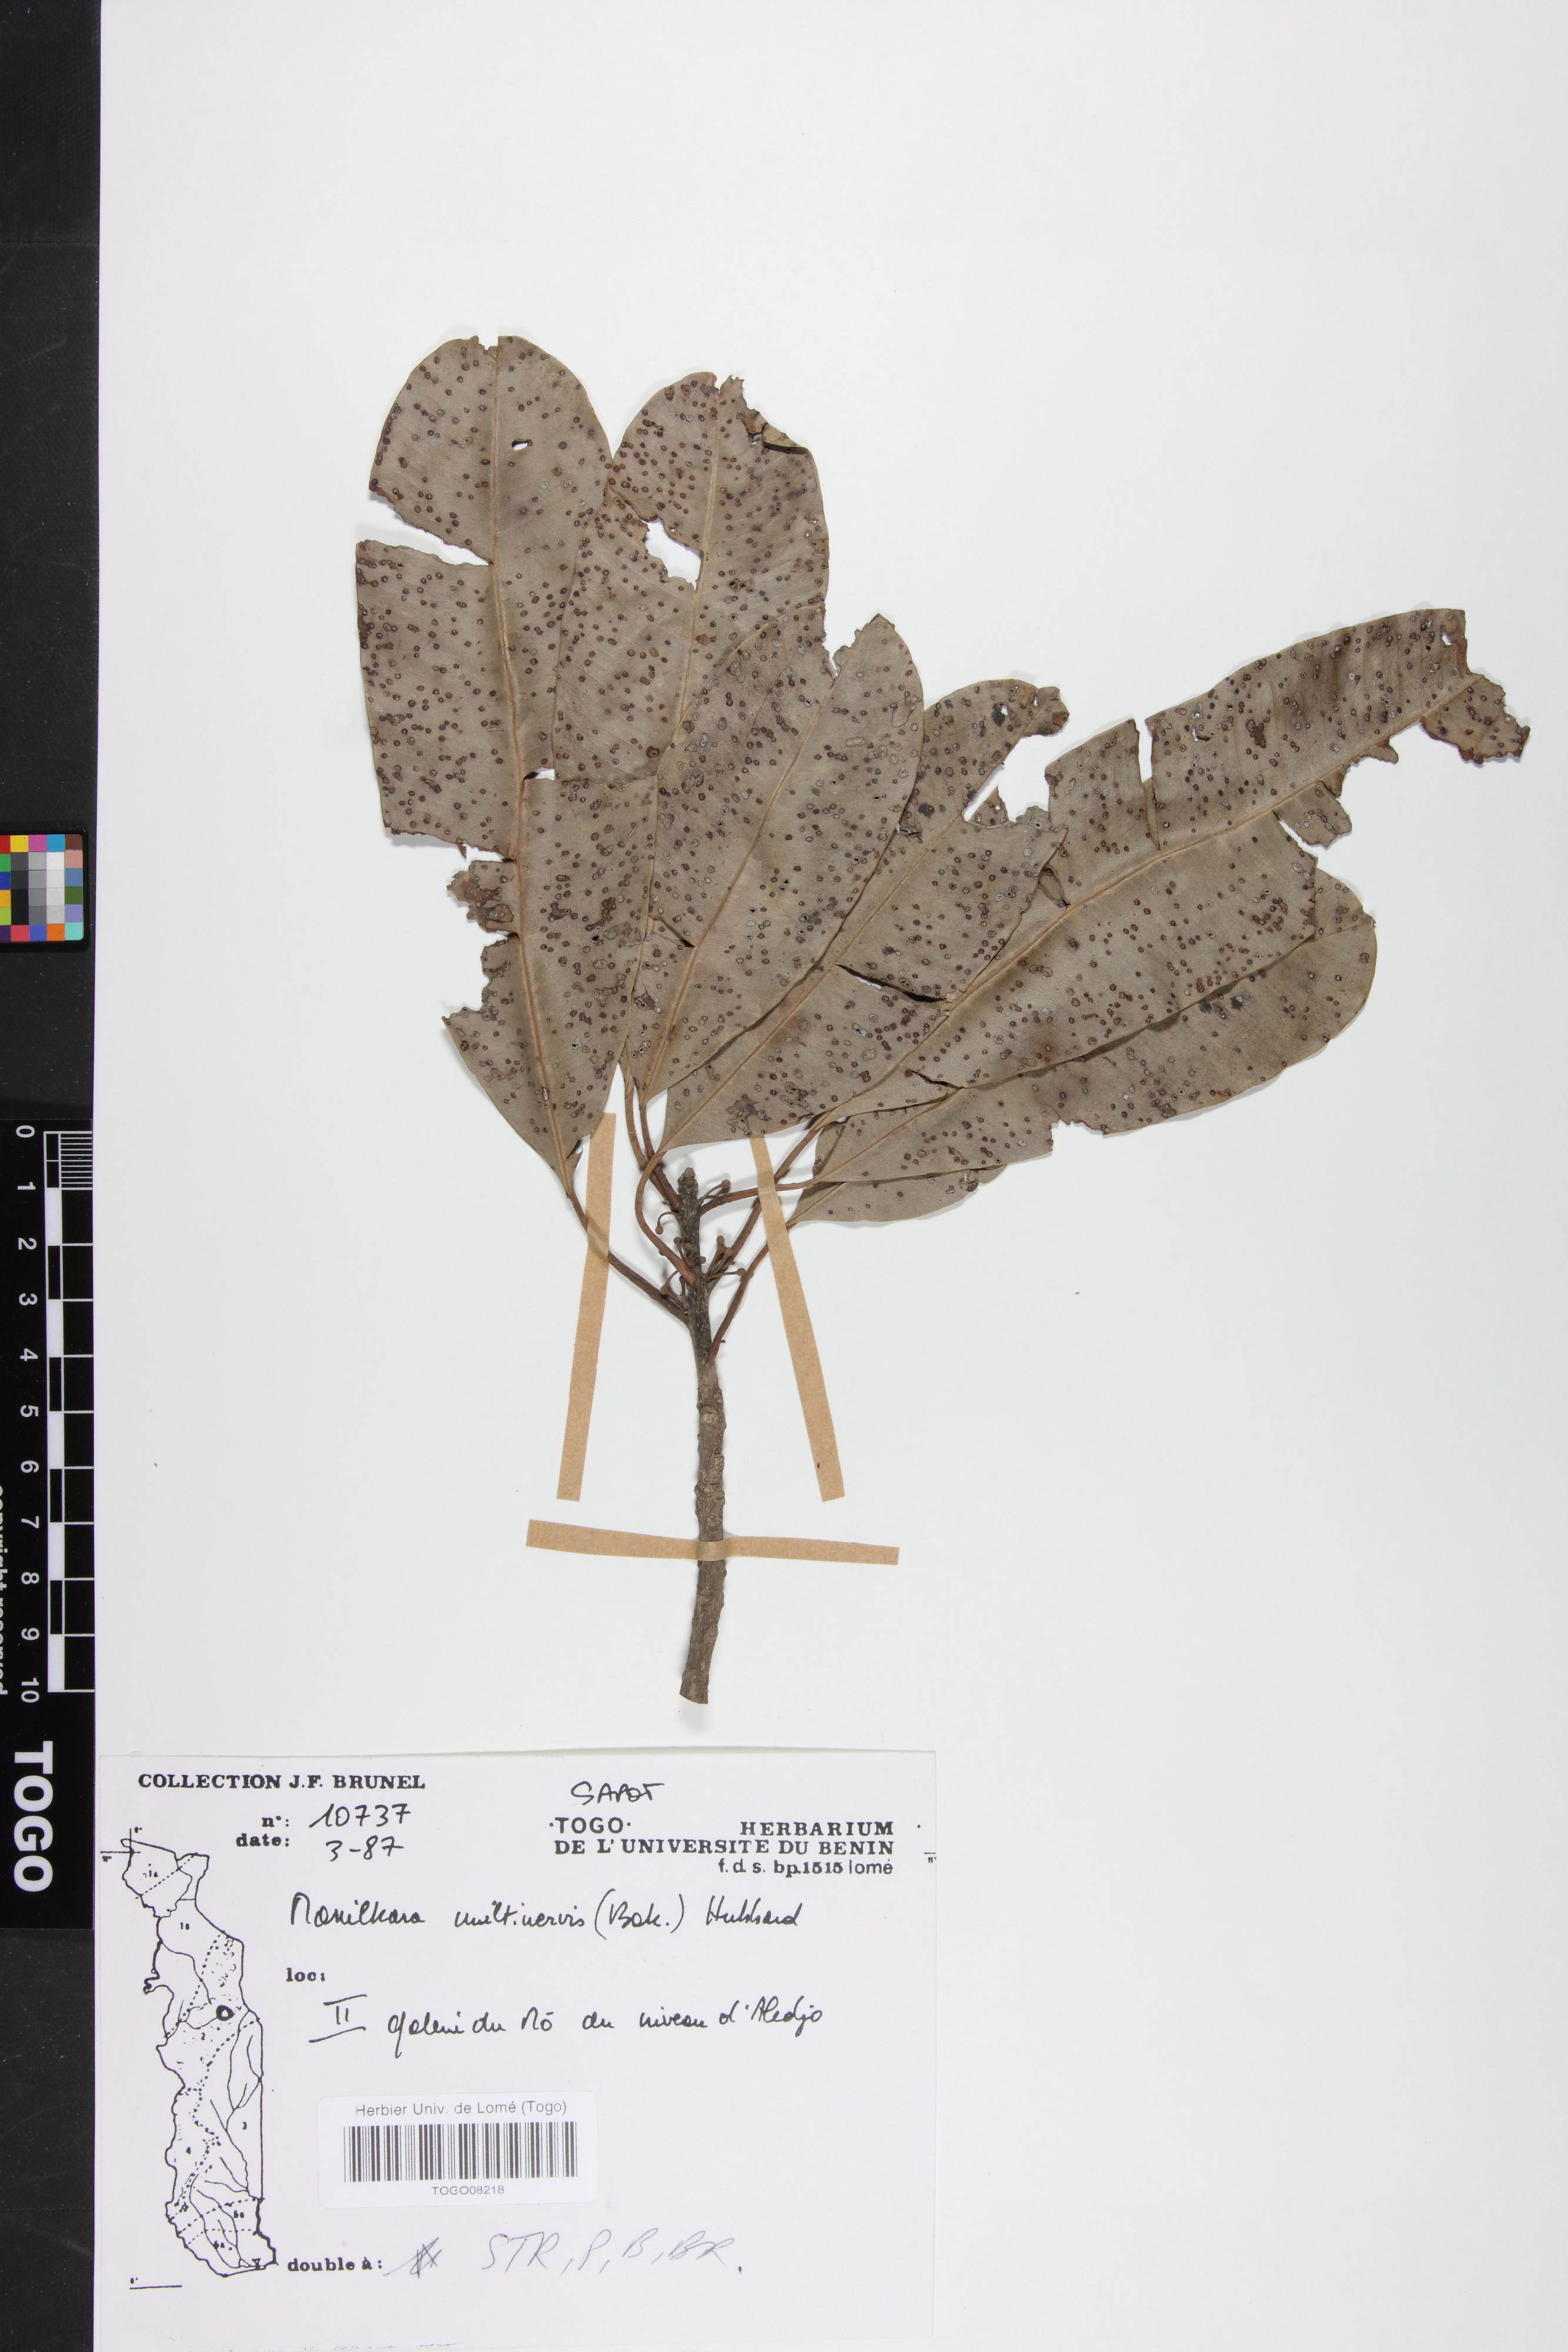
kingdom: Plantae
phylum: Tracheophyta
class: Magnoliopsida
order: Ericales
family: Sapotaceae
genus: Manilkara
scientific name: Manilkara obovata
